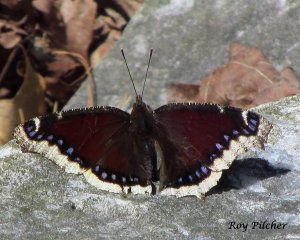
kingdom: Animalia
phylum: Arthropoda
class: Insecta
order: Lepidoptera
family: Nymphalidae
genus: Nymphalis
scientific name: Nymphalis antiopa
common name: Mourning Cloak
